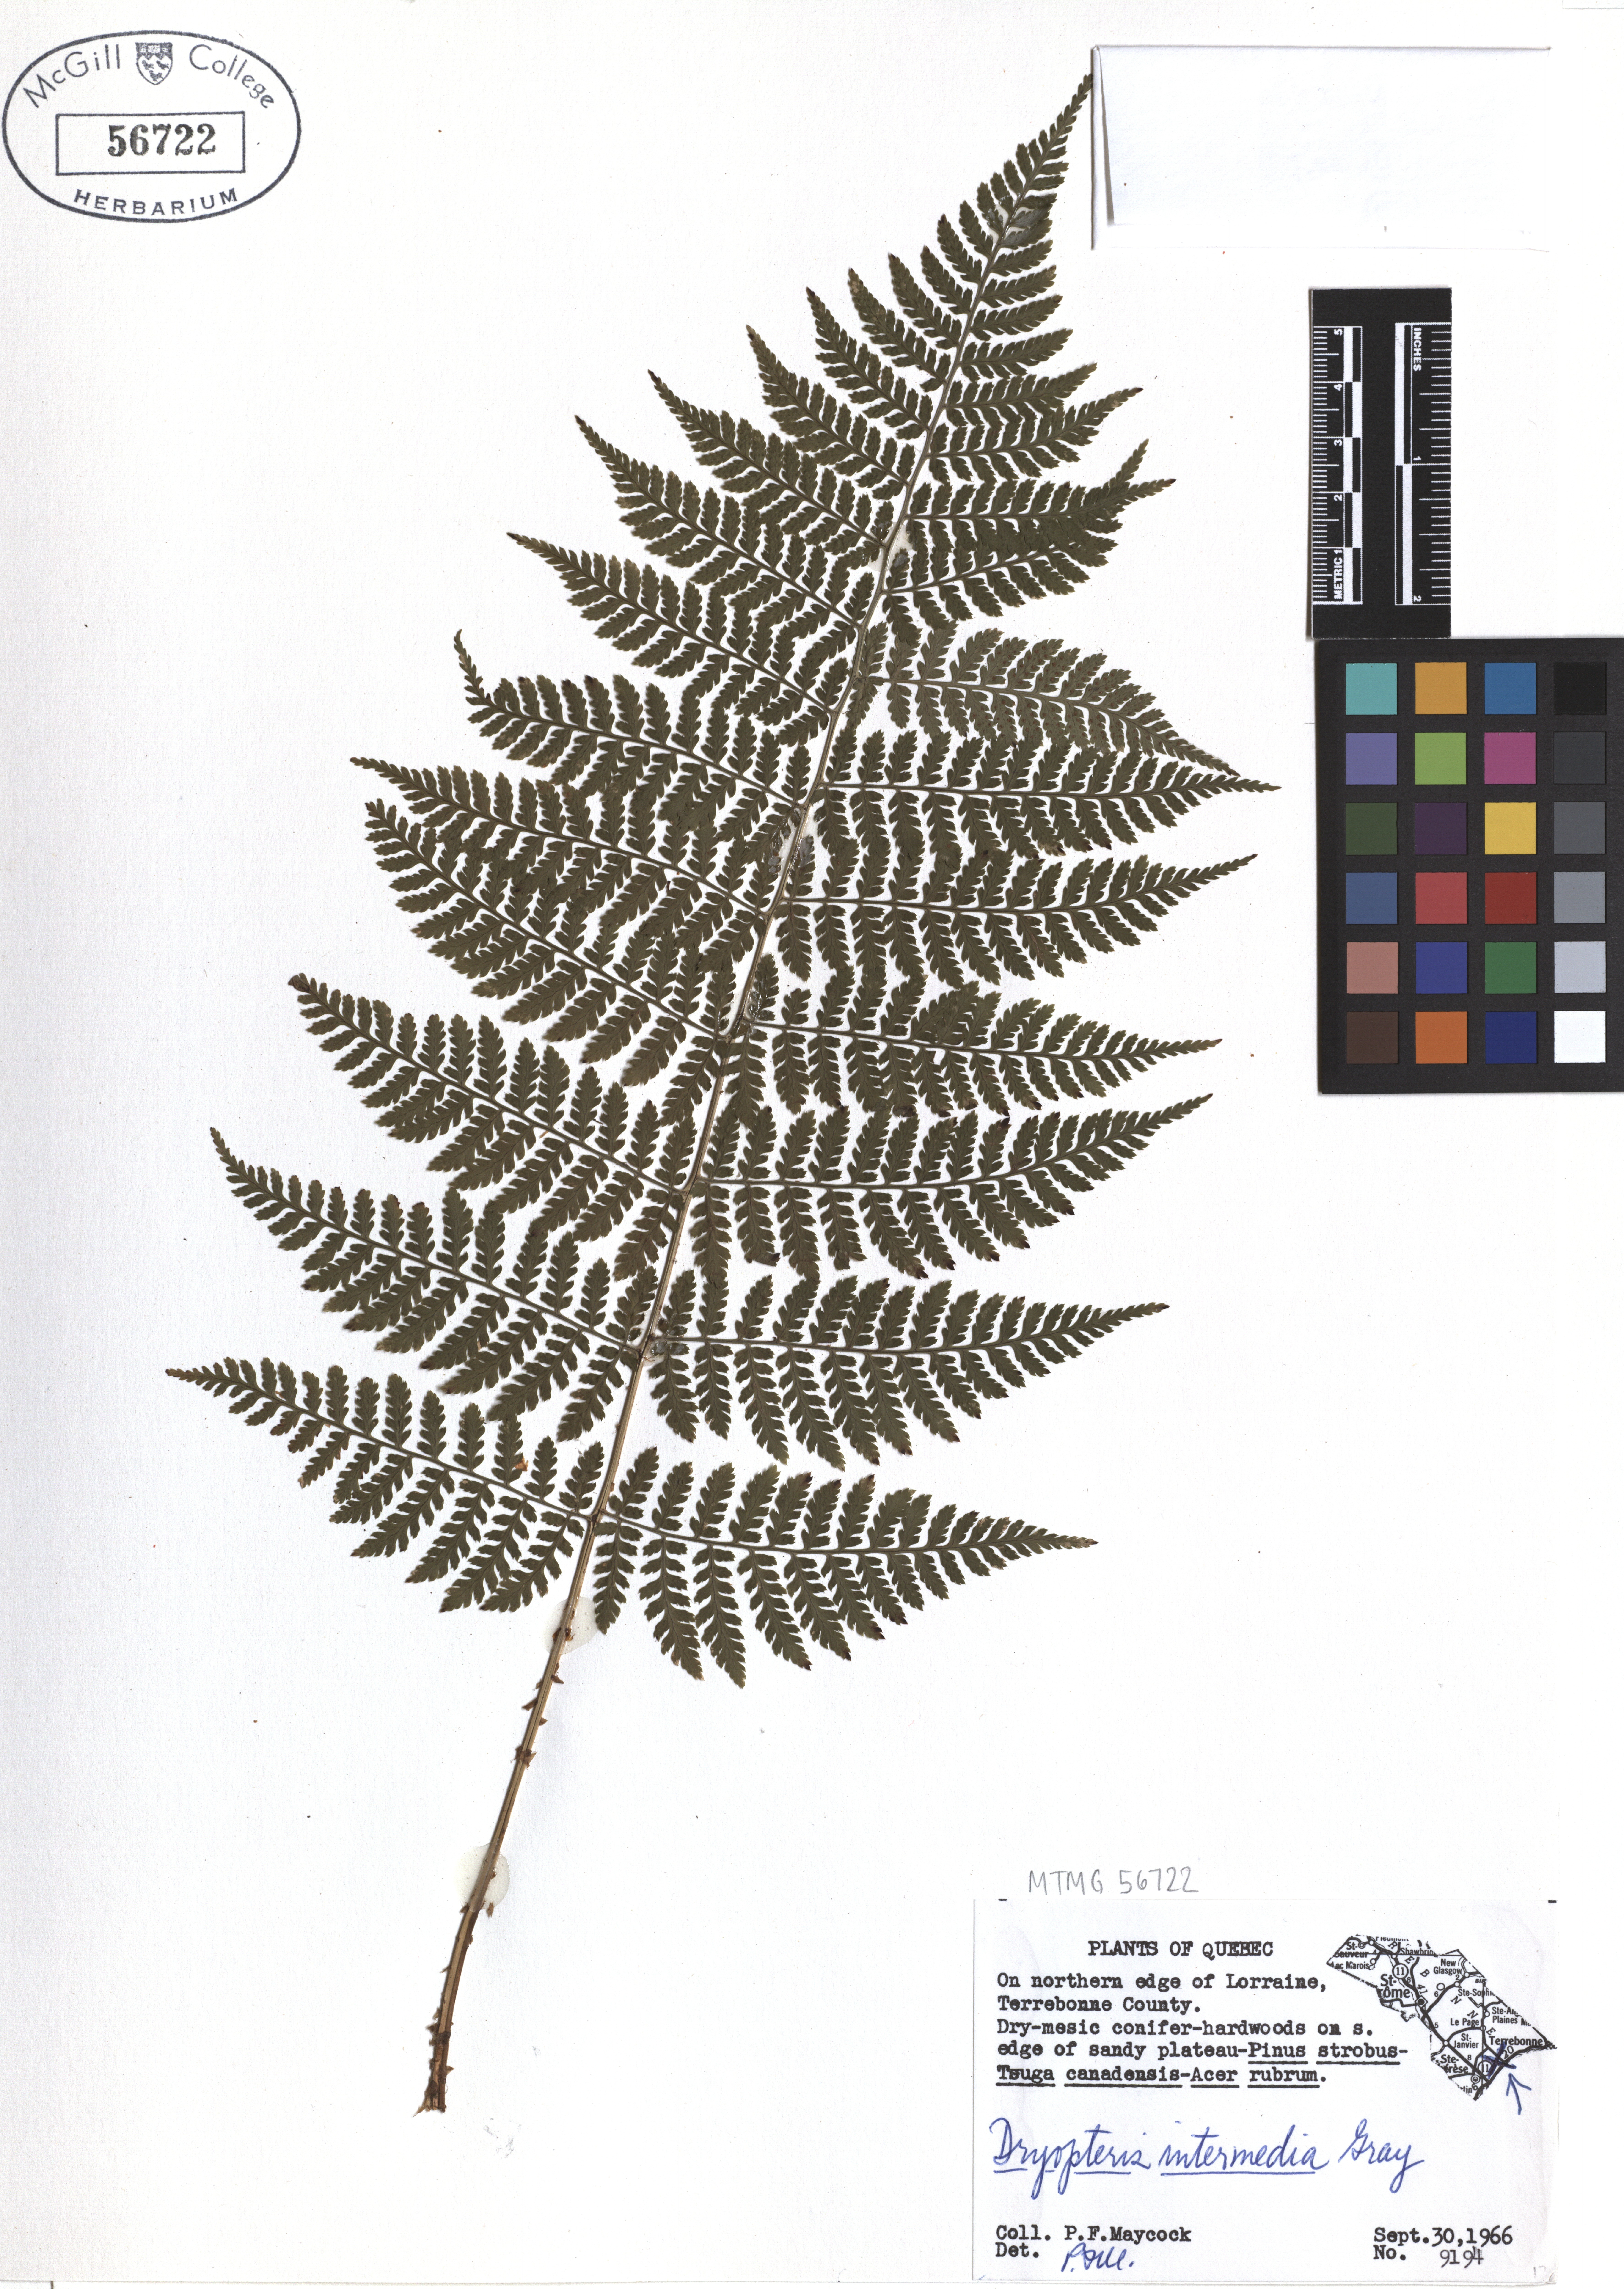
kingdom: Plantae
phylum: Tracheophyta
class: Polypodiopsida
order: Polypodiales
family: Dryopteridaceae
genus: Dryopteris
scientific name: Dryopteris intermedia
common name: Evergreen wood fern
